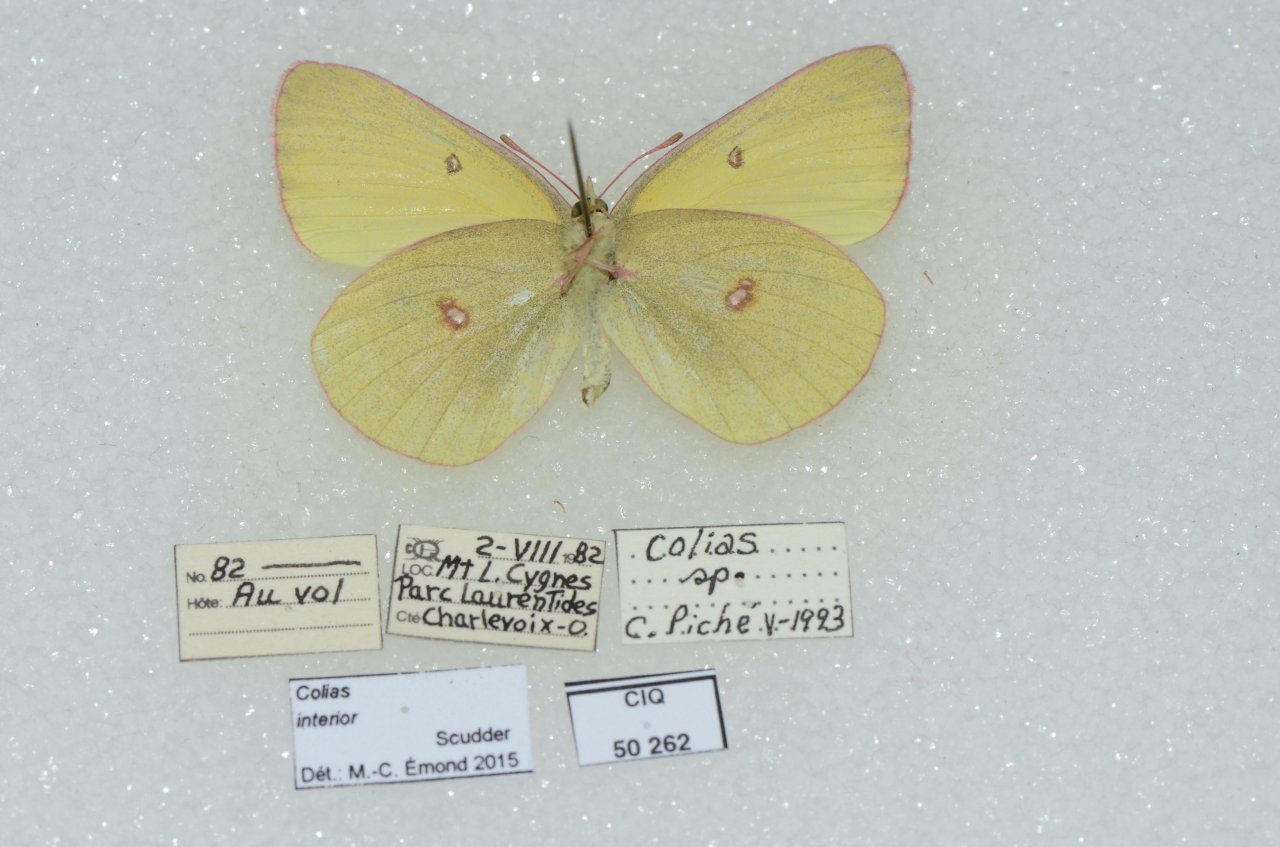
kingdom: Animalia
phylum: Arthropoda
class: Insecta
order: Lepidoptera
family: Pieridae
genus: Colias
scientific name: Colias interior
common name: Pink-edged Sulphur
